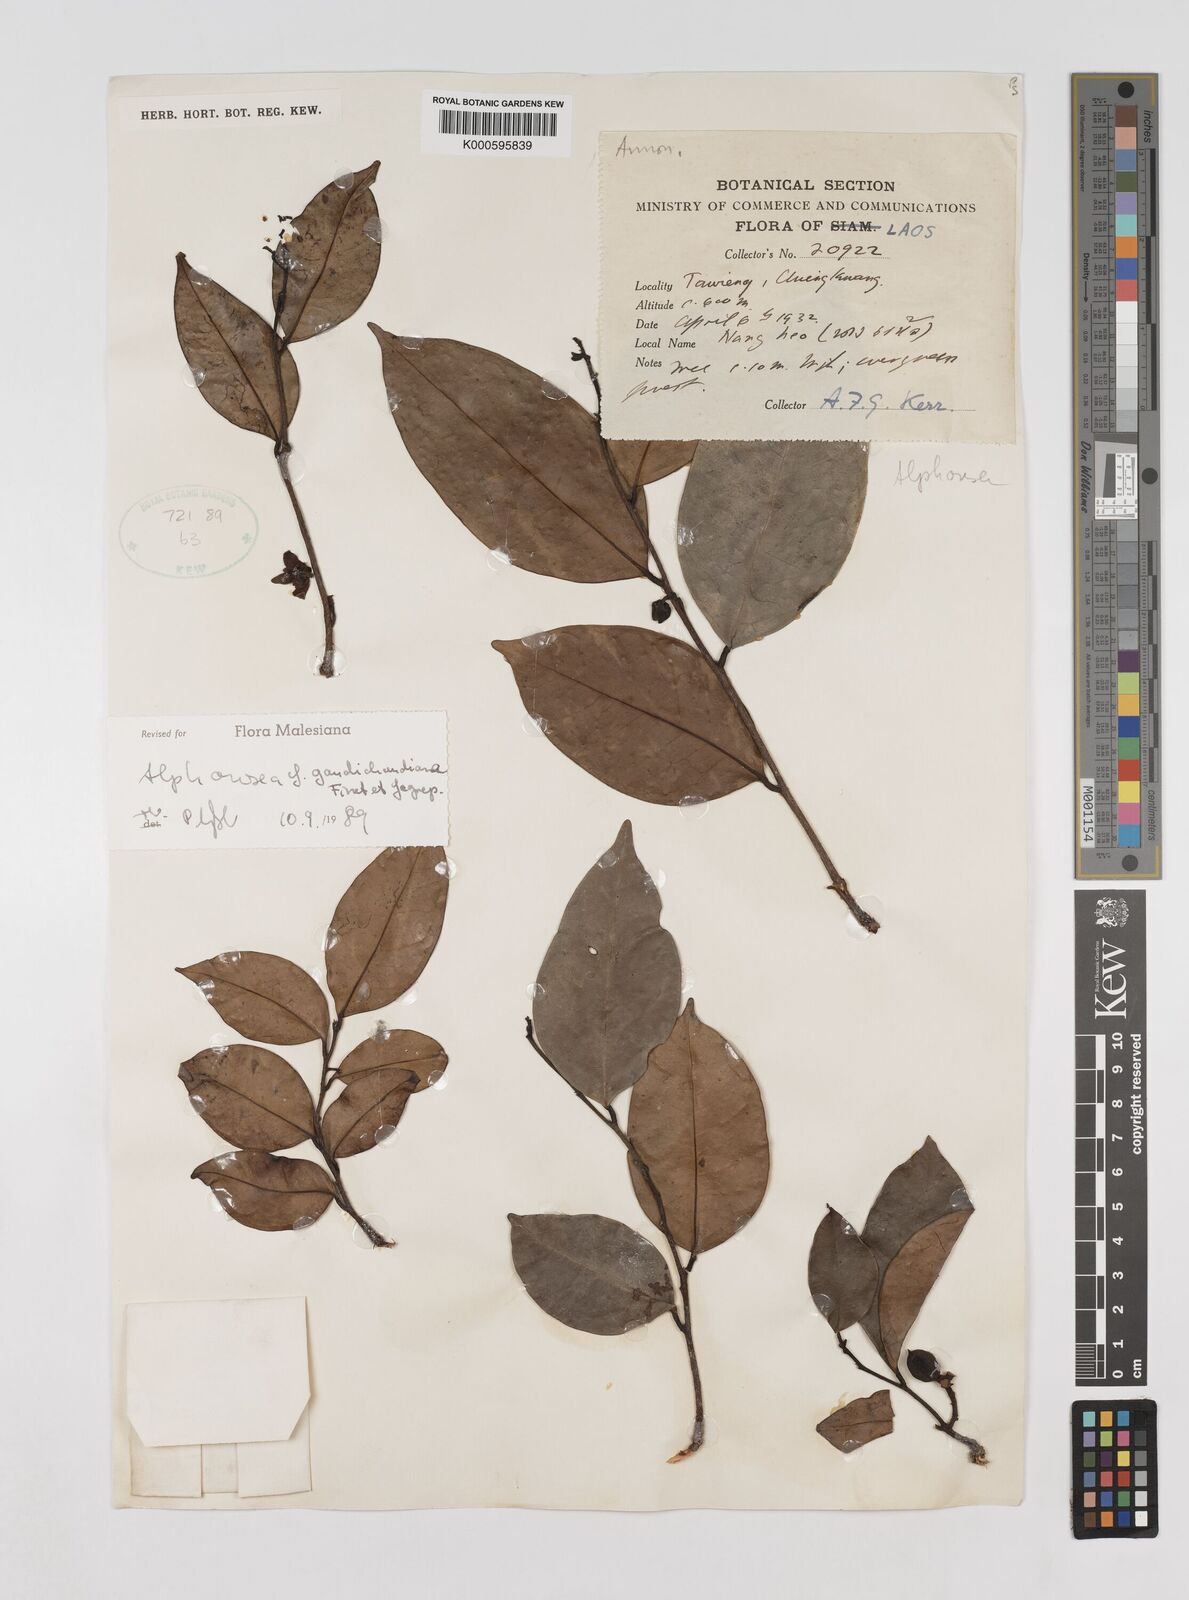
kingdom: Plantae
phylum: Tracheophyta
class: Magnoliopsida
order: Magnoliales
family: Annonaceae
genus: Alphonsea
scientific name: Alphonsea gaudichaudiana
